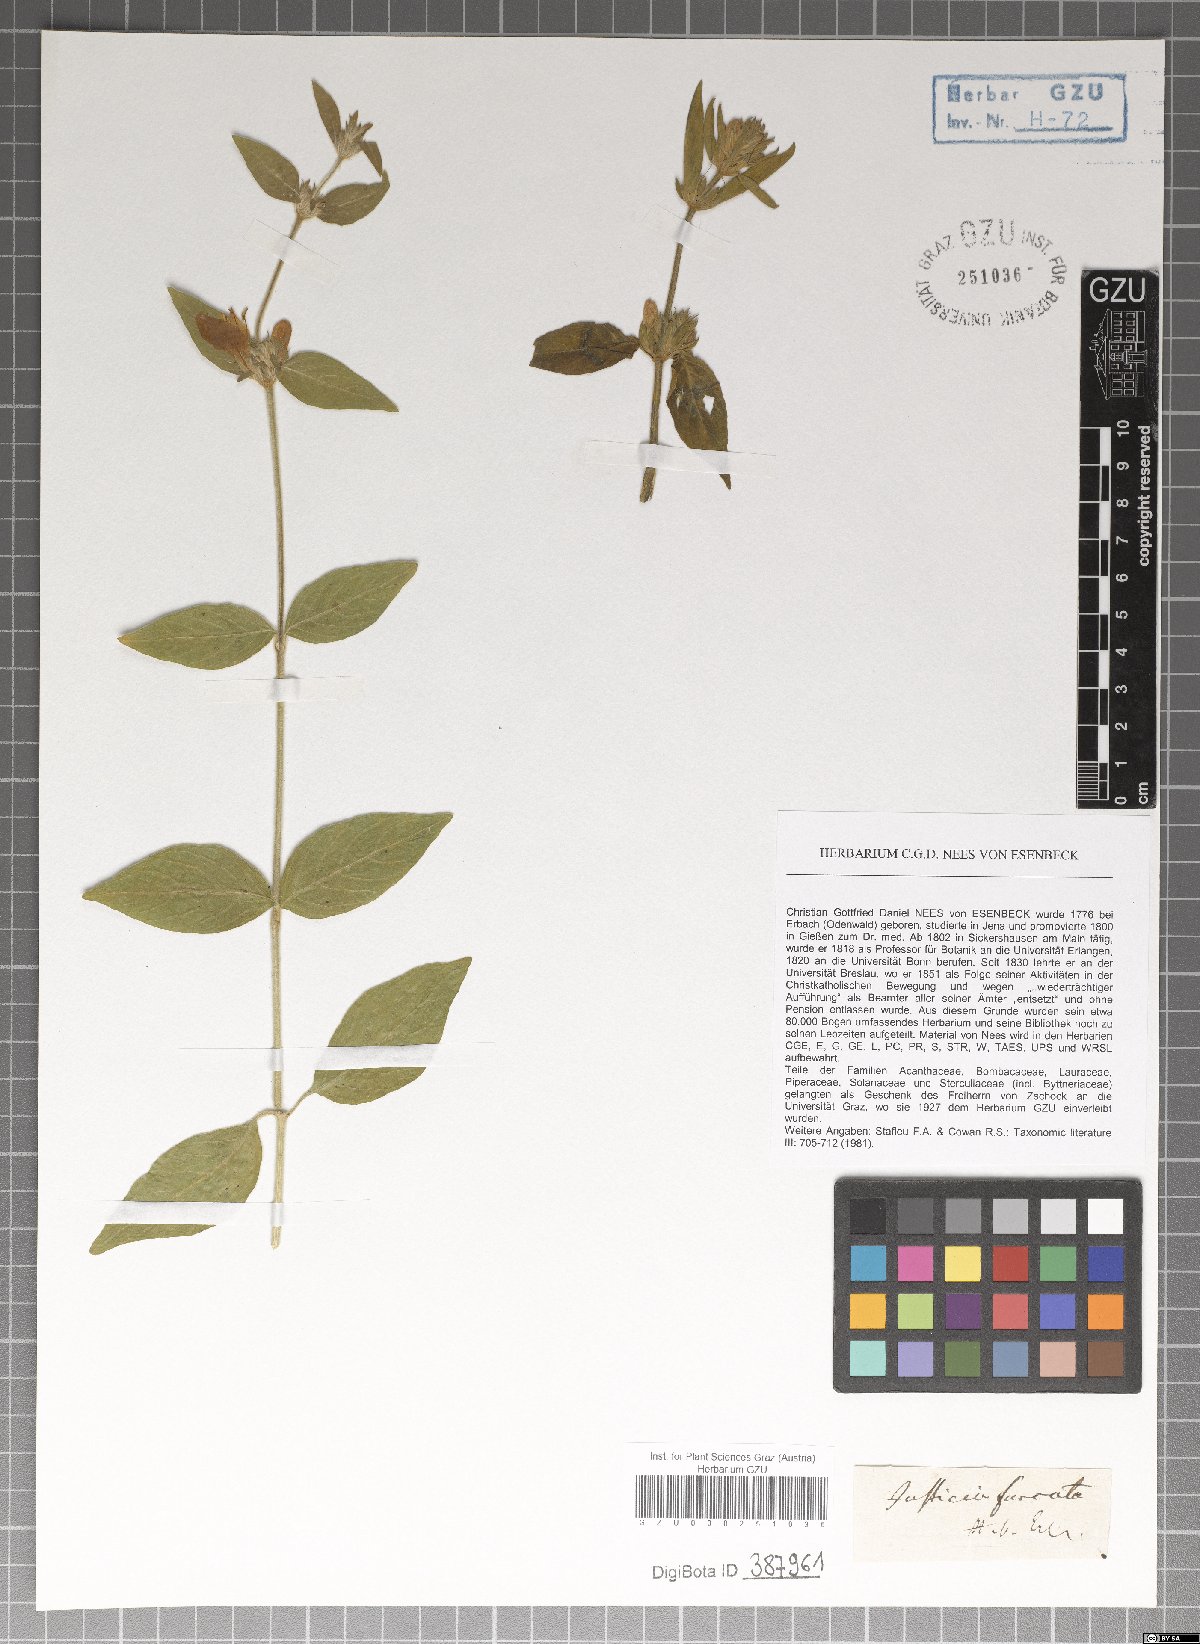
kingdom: Plantae
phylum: Tracheophyta
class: Magnoliopsida
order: Lamiales
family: Acanthaceae
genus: Justicia
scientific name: Justicia furcata
